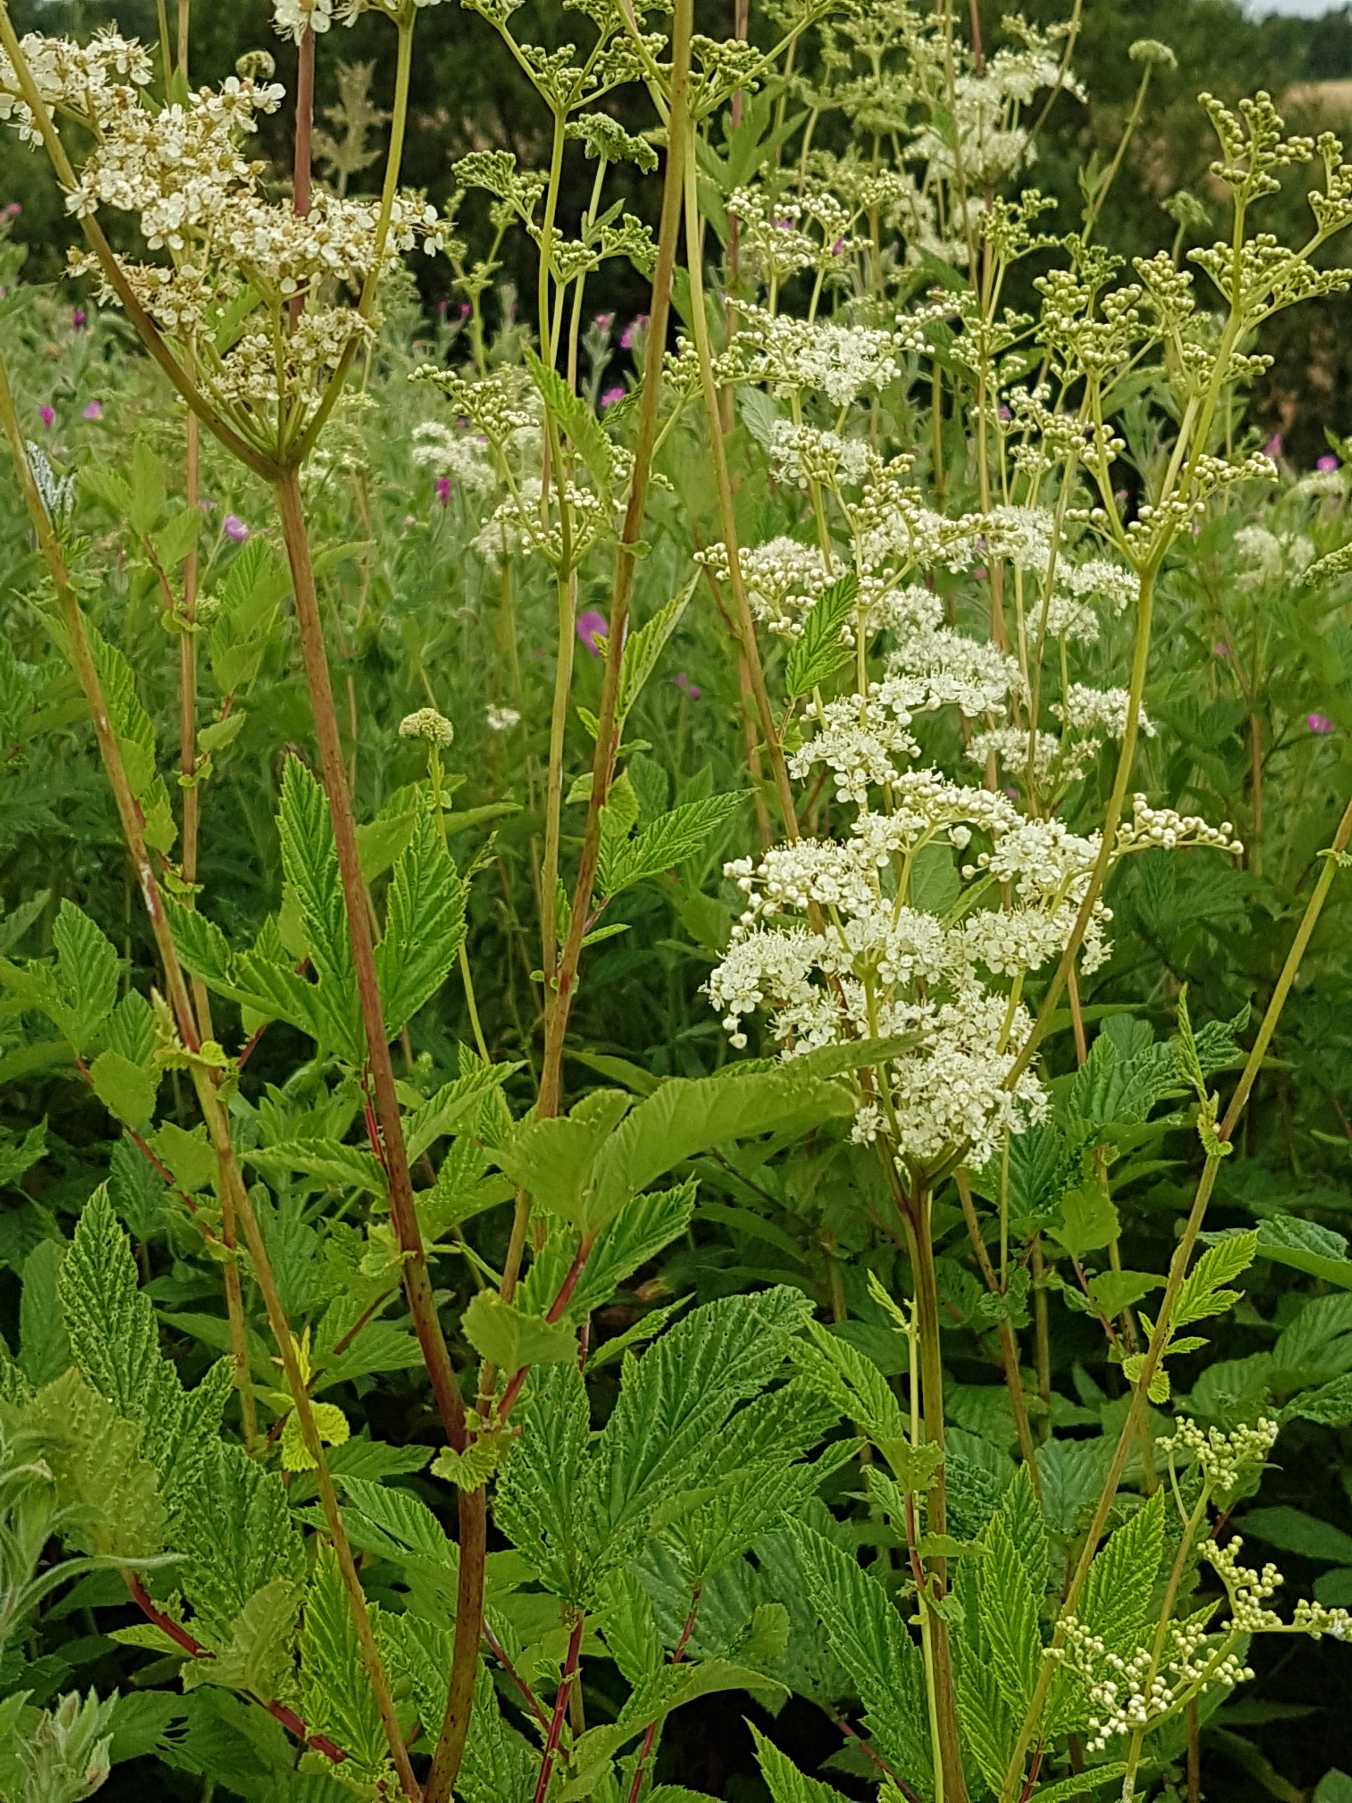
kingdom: Plantae
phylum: Tracheophyta
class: Magnoliopsida
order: Rosales
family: Rosaceae
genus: Filipendula
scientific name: Filipendula ulmaria
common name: Almindelig mjødurt
